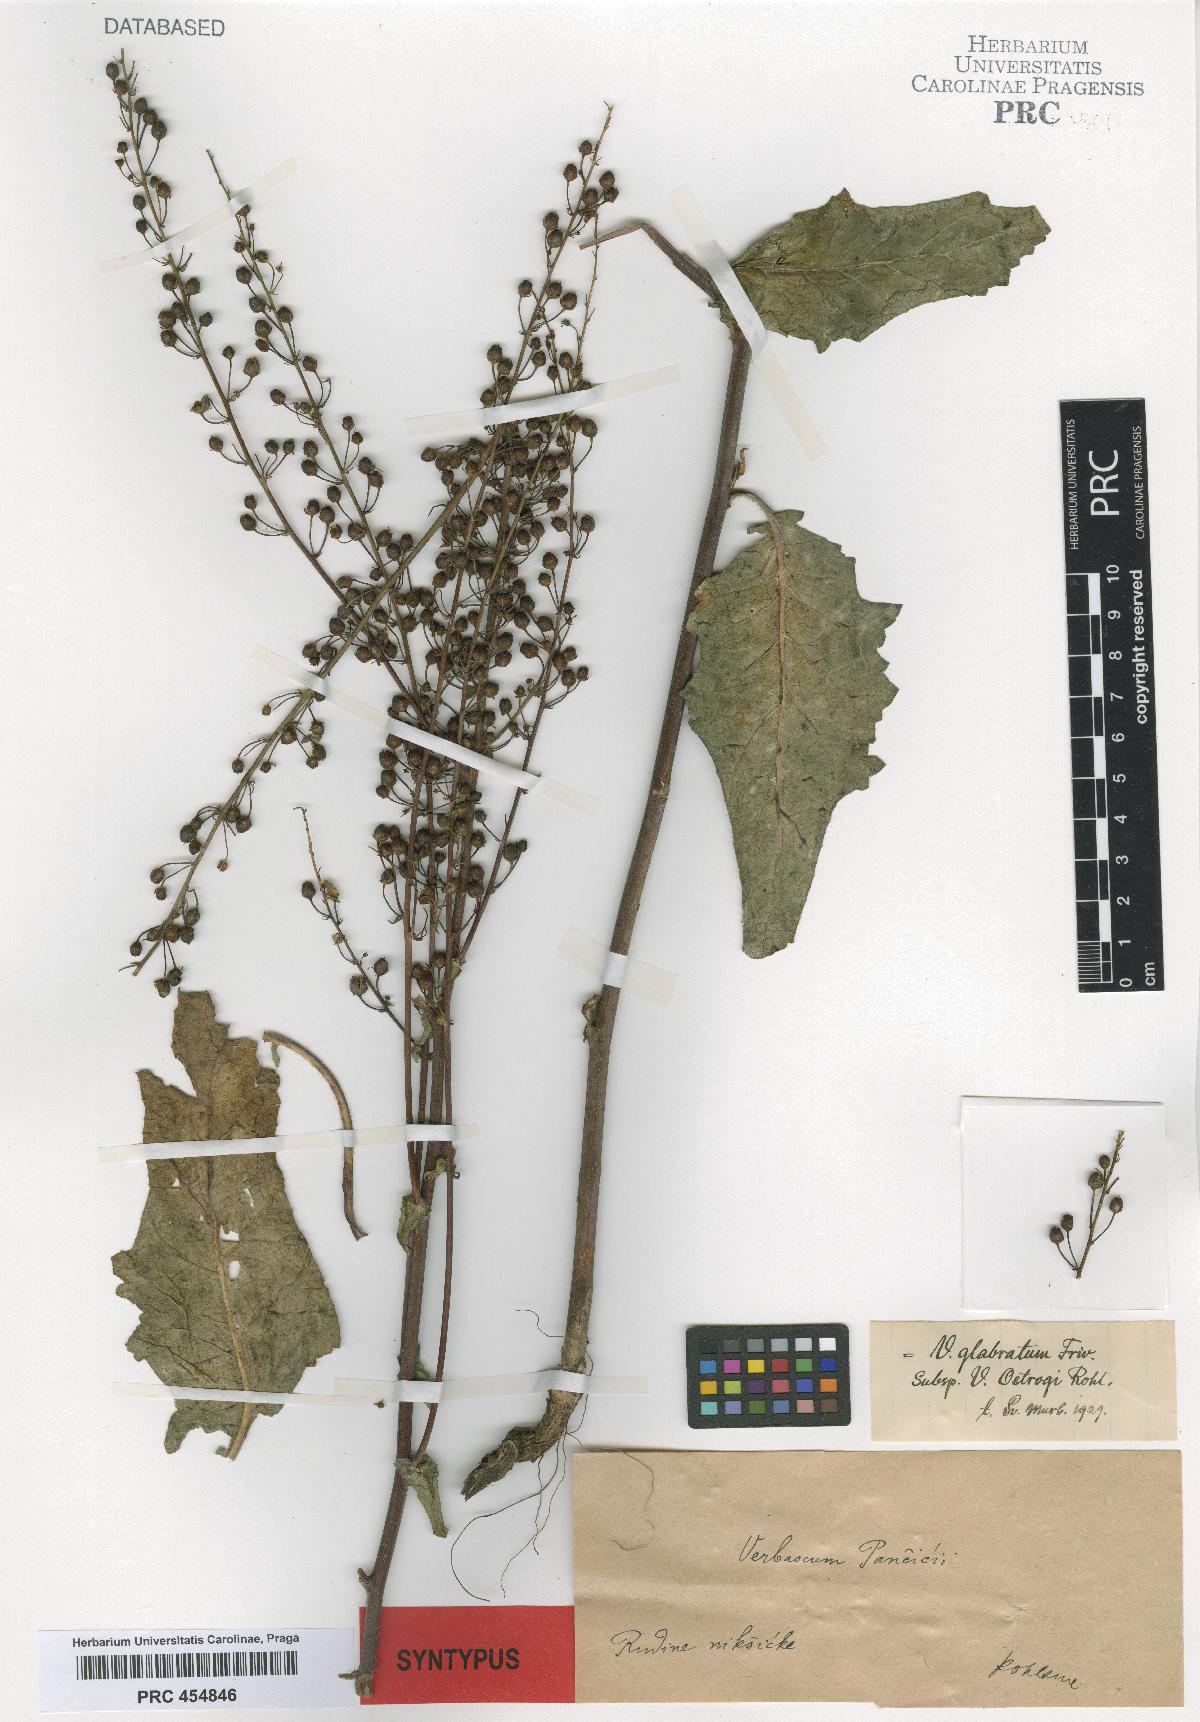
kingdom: Plantae
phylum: Tracheophyta
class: Magnoliopsida
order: Lamiales
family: Scrophulariaceae
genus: Verbascum
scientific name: Verbascum glabratum
